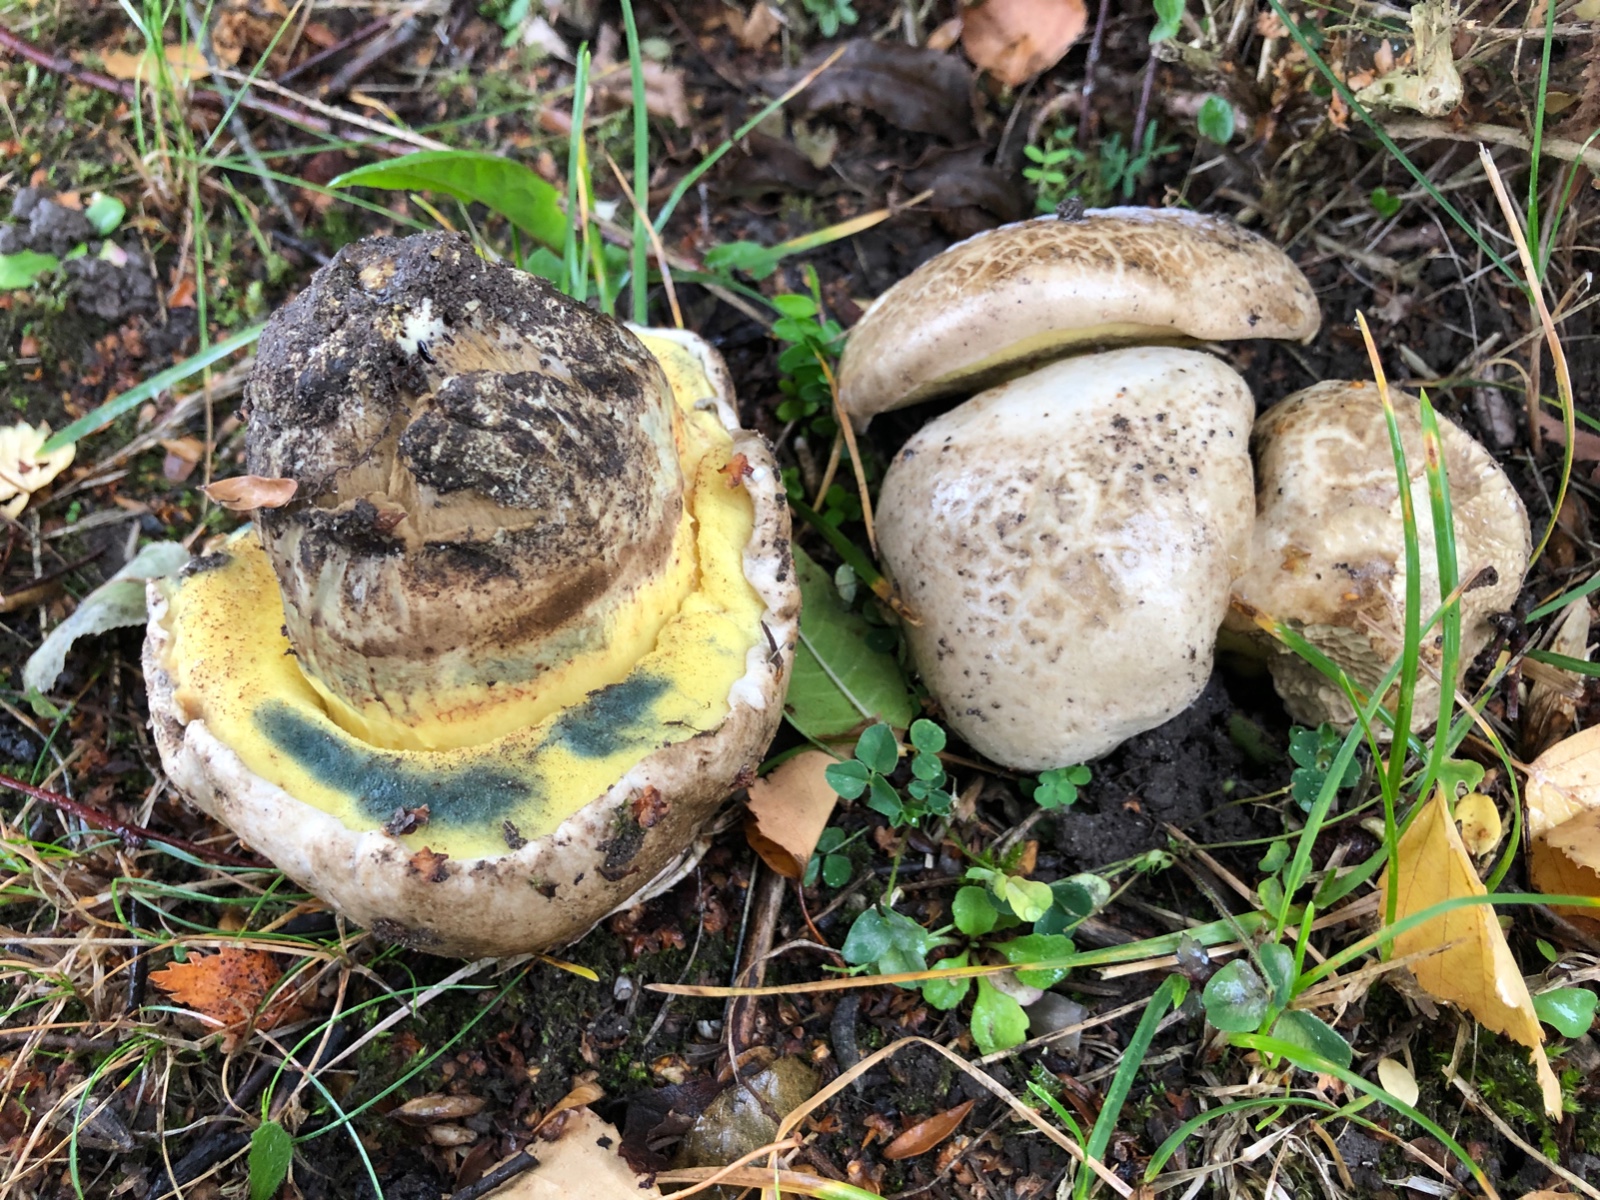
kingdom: Fungi
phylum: Basidiomycota
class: Agaricomycetes
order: Boletales
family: Boletaceae
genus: Caloboletus
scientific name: Caloboletus radicans
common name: rod-rørhat
